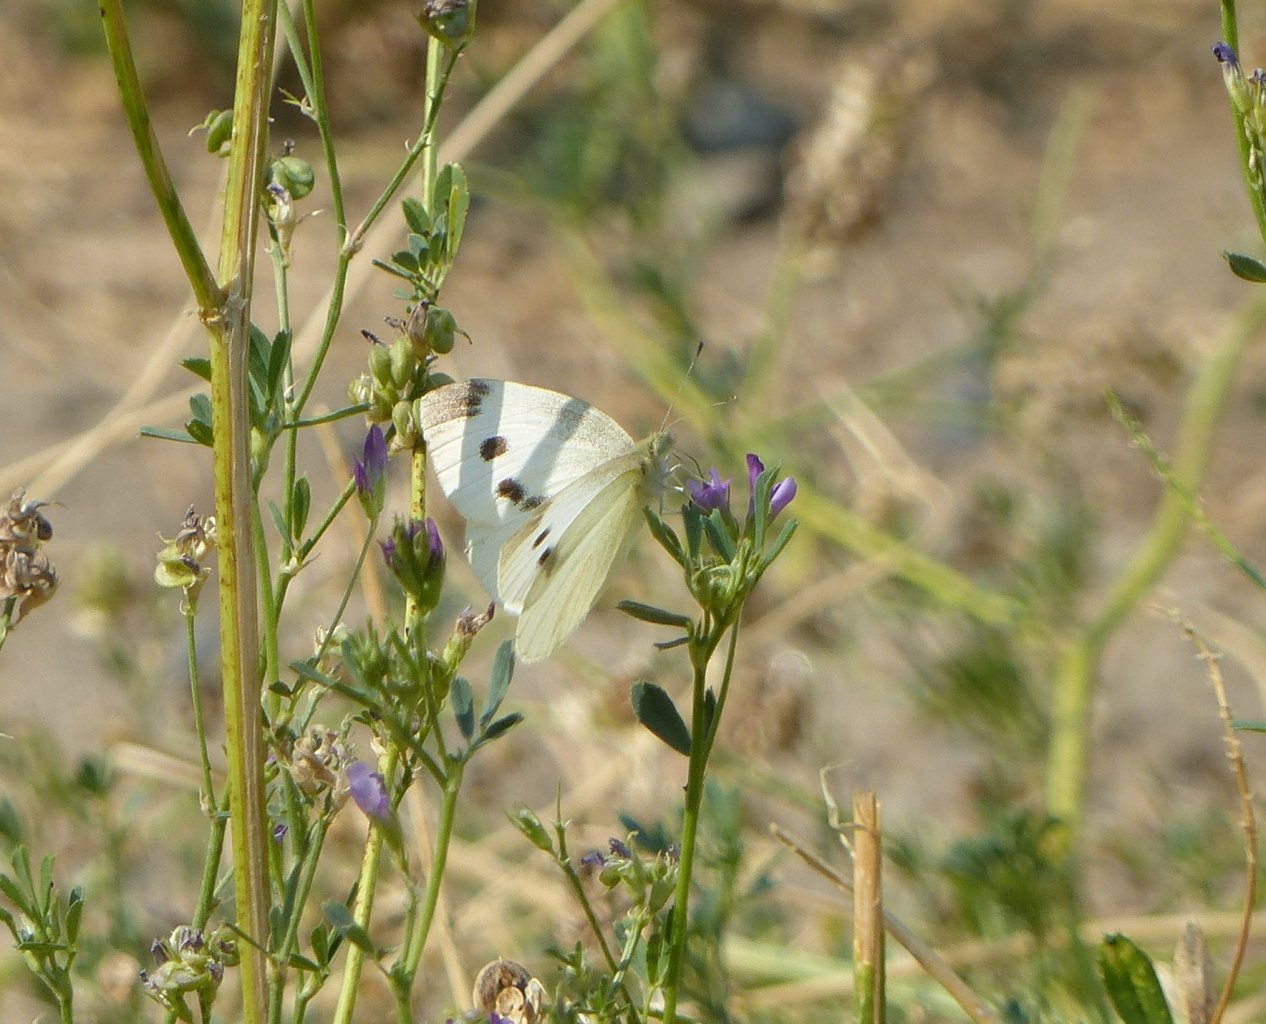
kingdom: Animalia
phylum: Arthropoda
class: Insecta
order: Lepidoptera
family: Pieridae
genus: Pieris
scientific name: Pieris rapae
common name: Cabbage White
